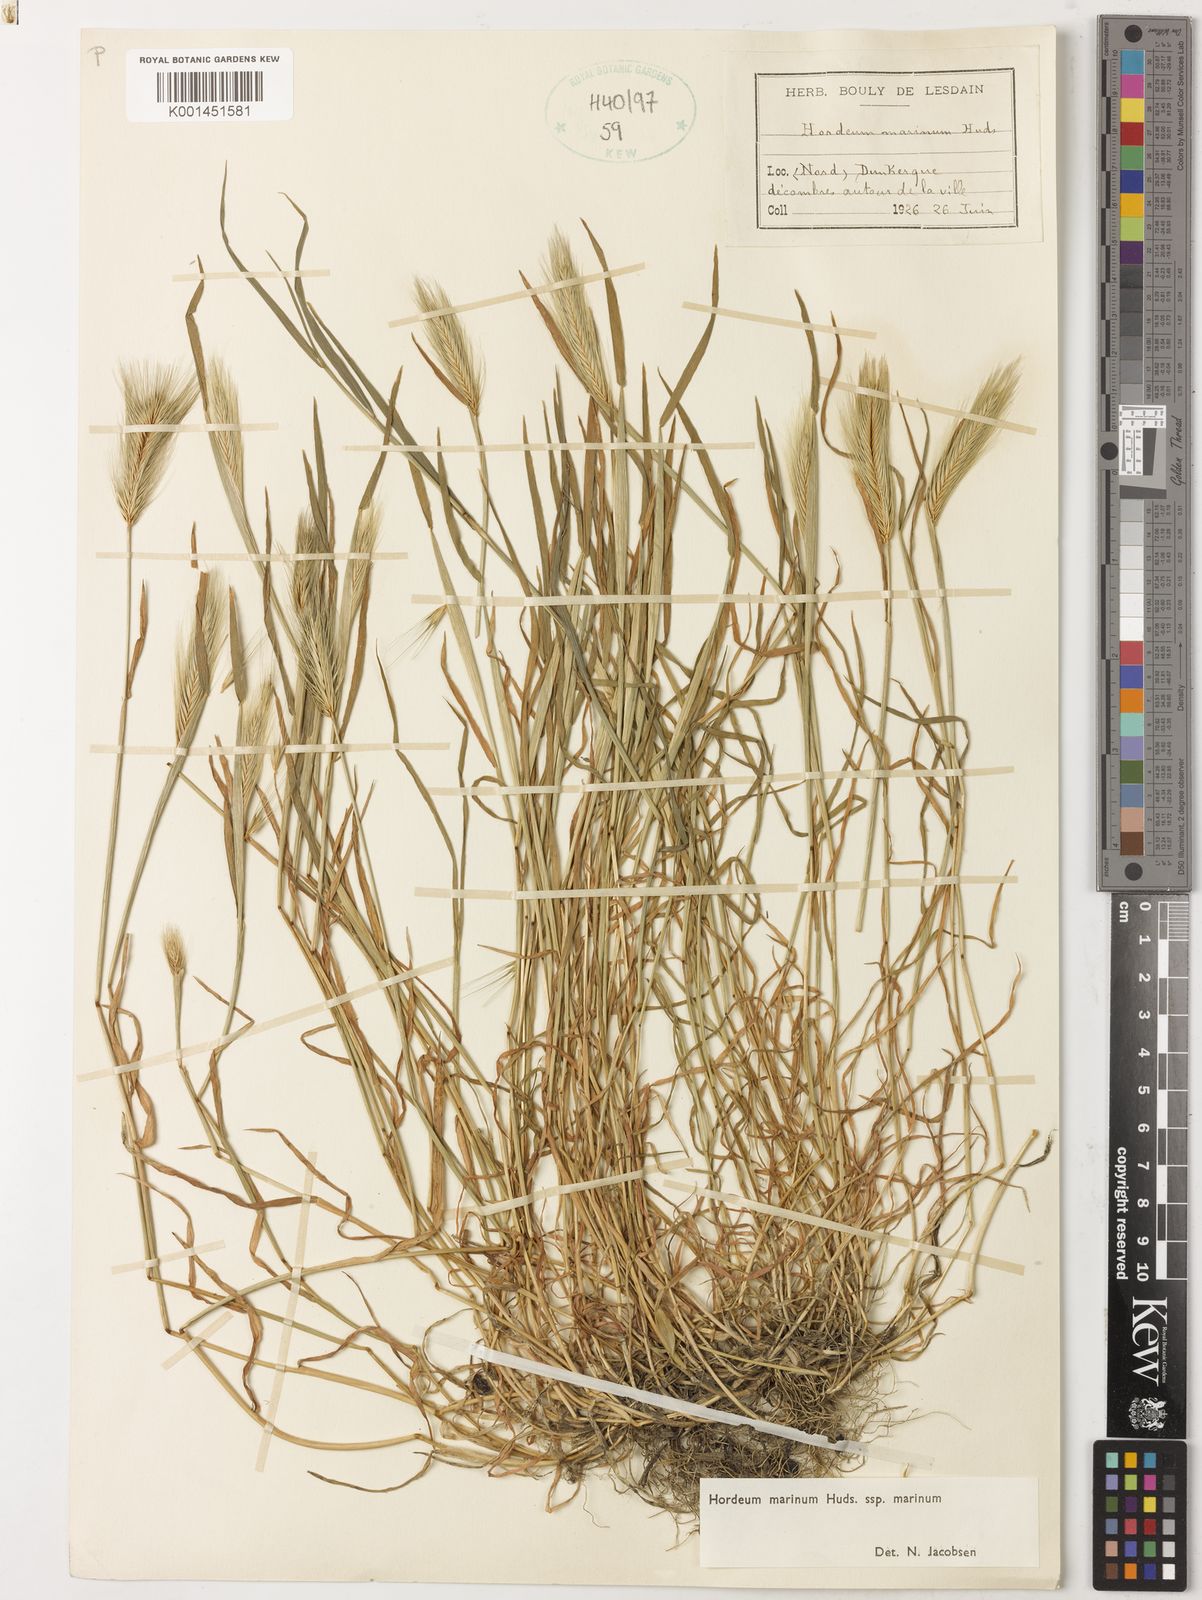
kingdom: Plantae
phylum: Tracheophyta
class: Liliopsida
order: Poales
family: Poaceae
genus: Hordeum
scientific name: Hordeum marinum
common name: Sea barley
